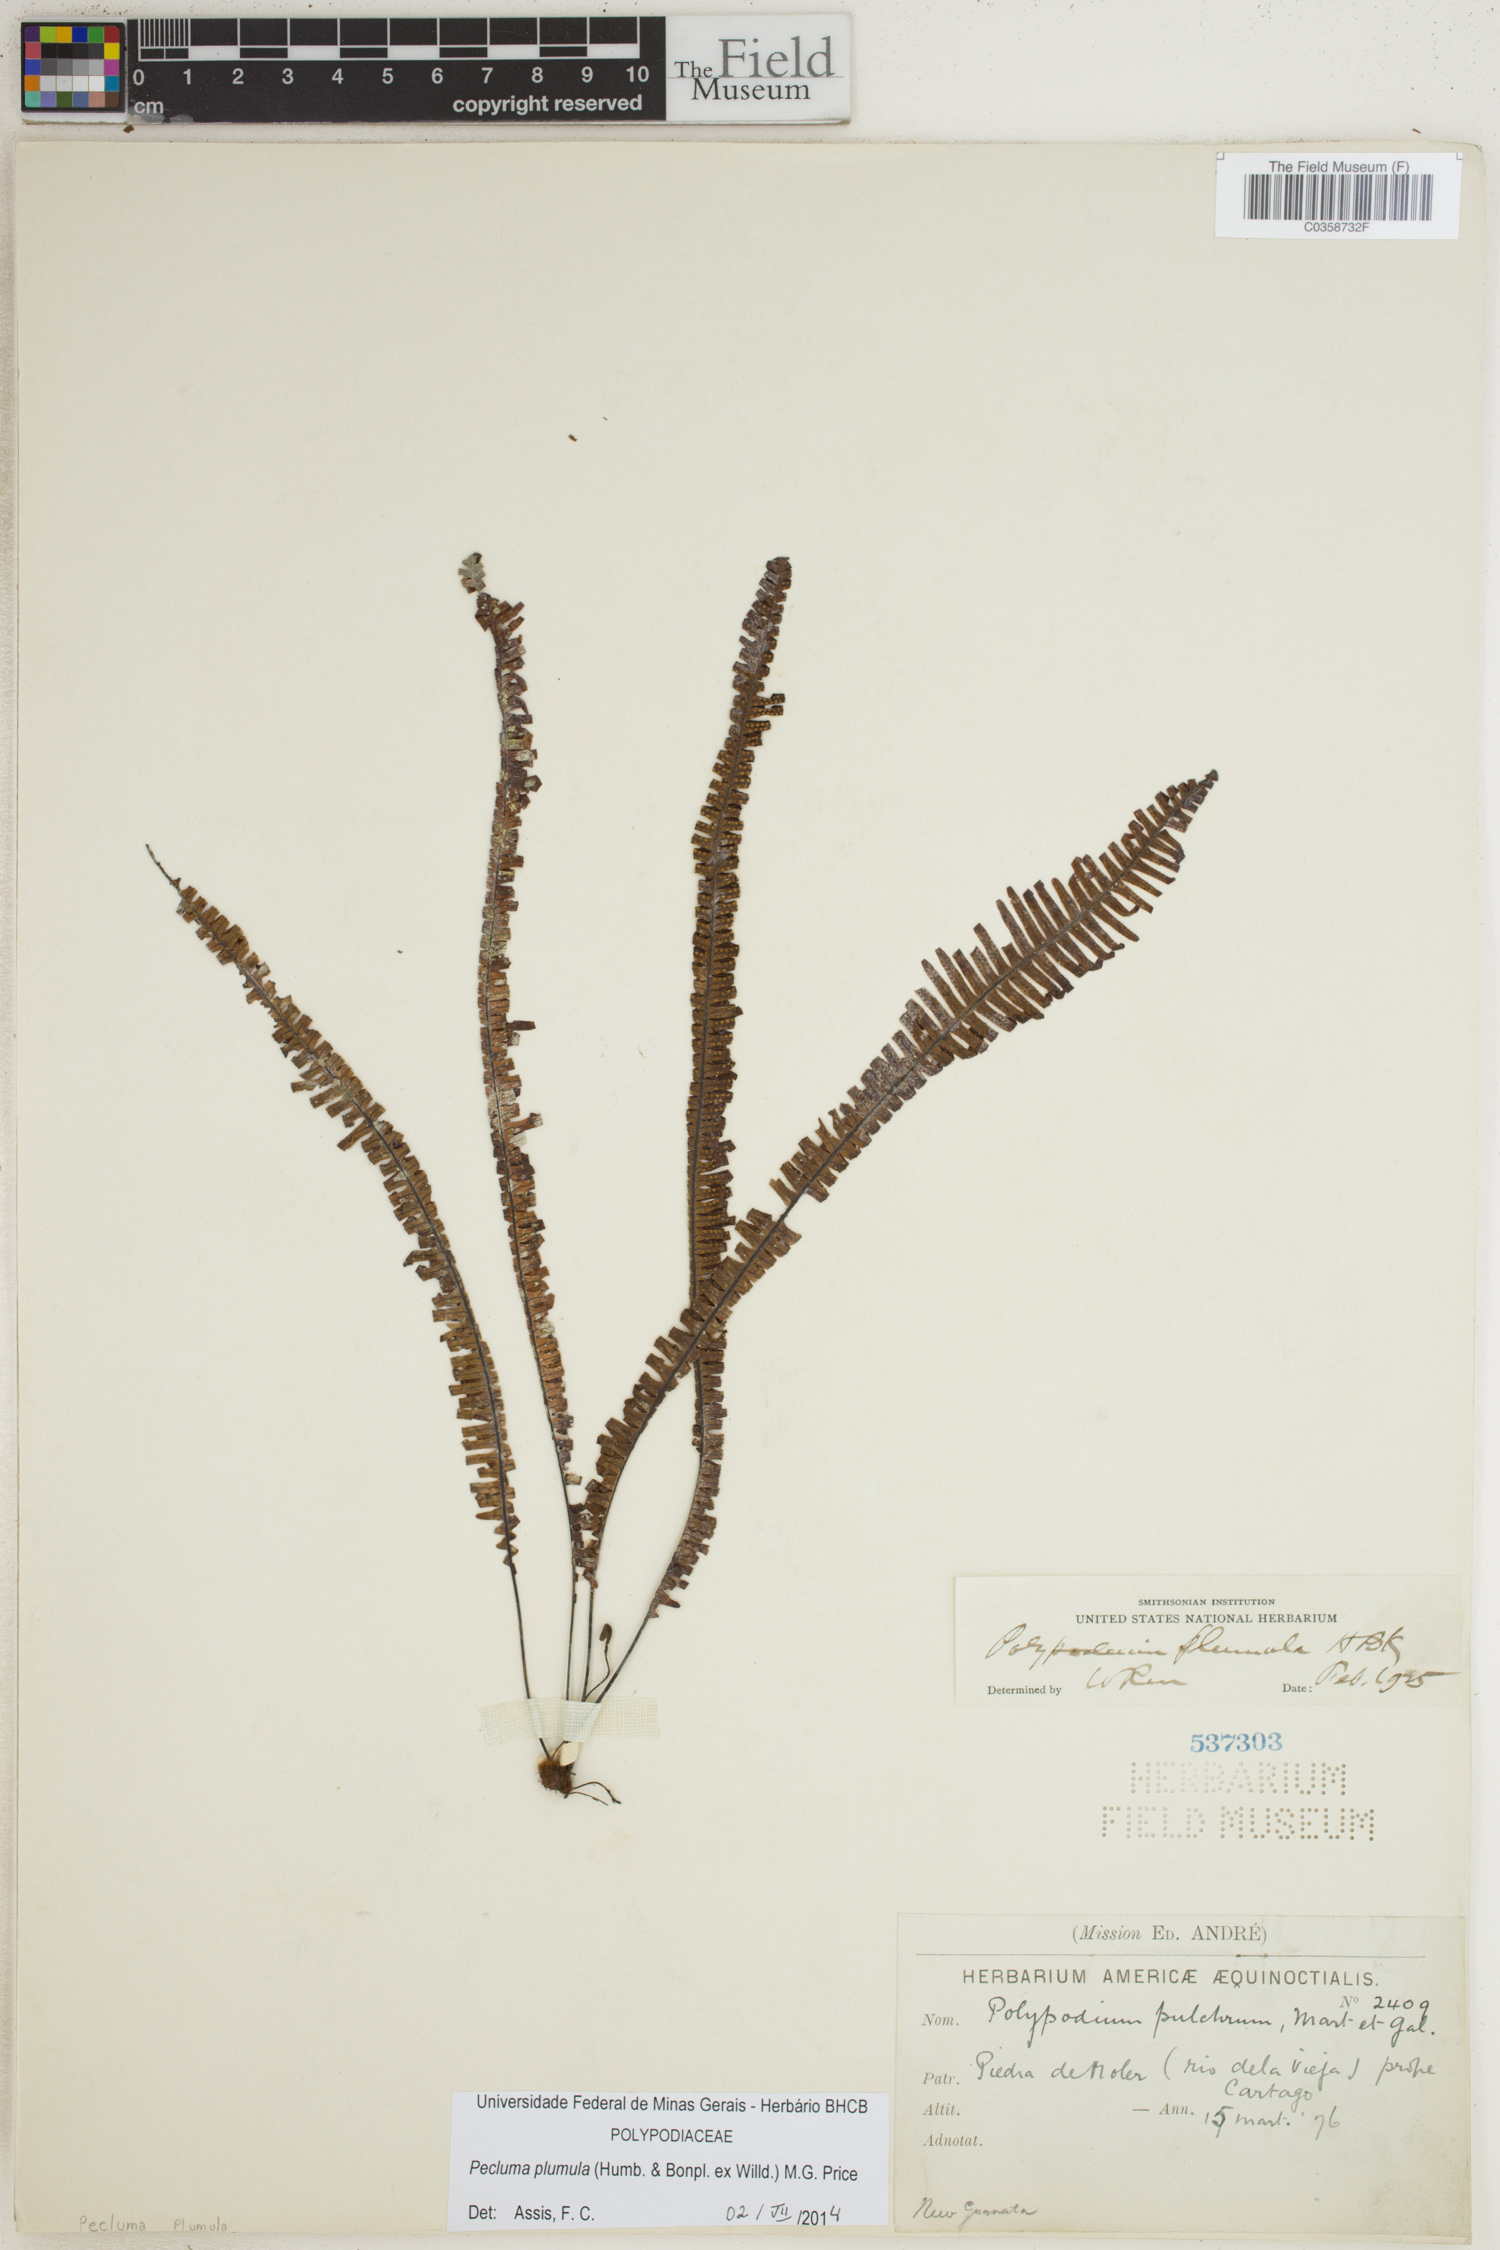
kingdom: Plantae
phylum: Tracheophyta
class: Polypodiopsida
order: Polypodiales
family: Polypodiaceae
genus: Pecluma
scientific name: Pecluma plumula
